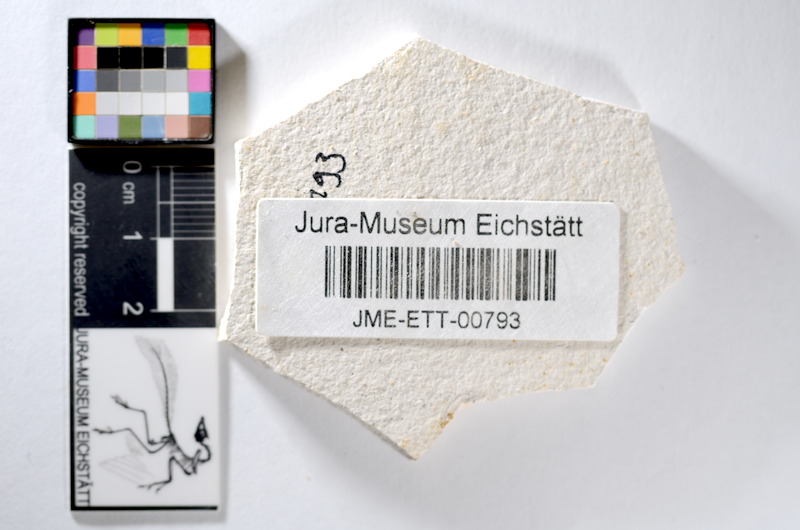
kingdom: Animalia
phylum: Chordata
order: Salmoniformes
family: Orthogonikleithridae
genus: Orthogonikleithrus
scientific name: Orthogonikleithrus hoelli
